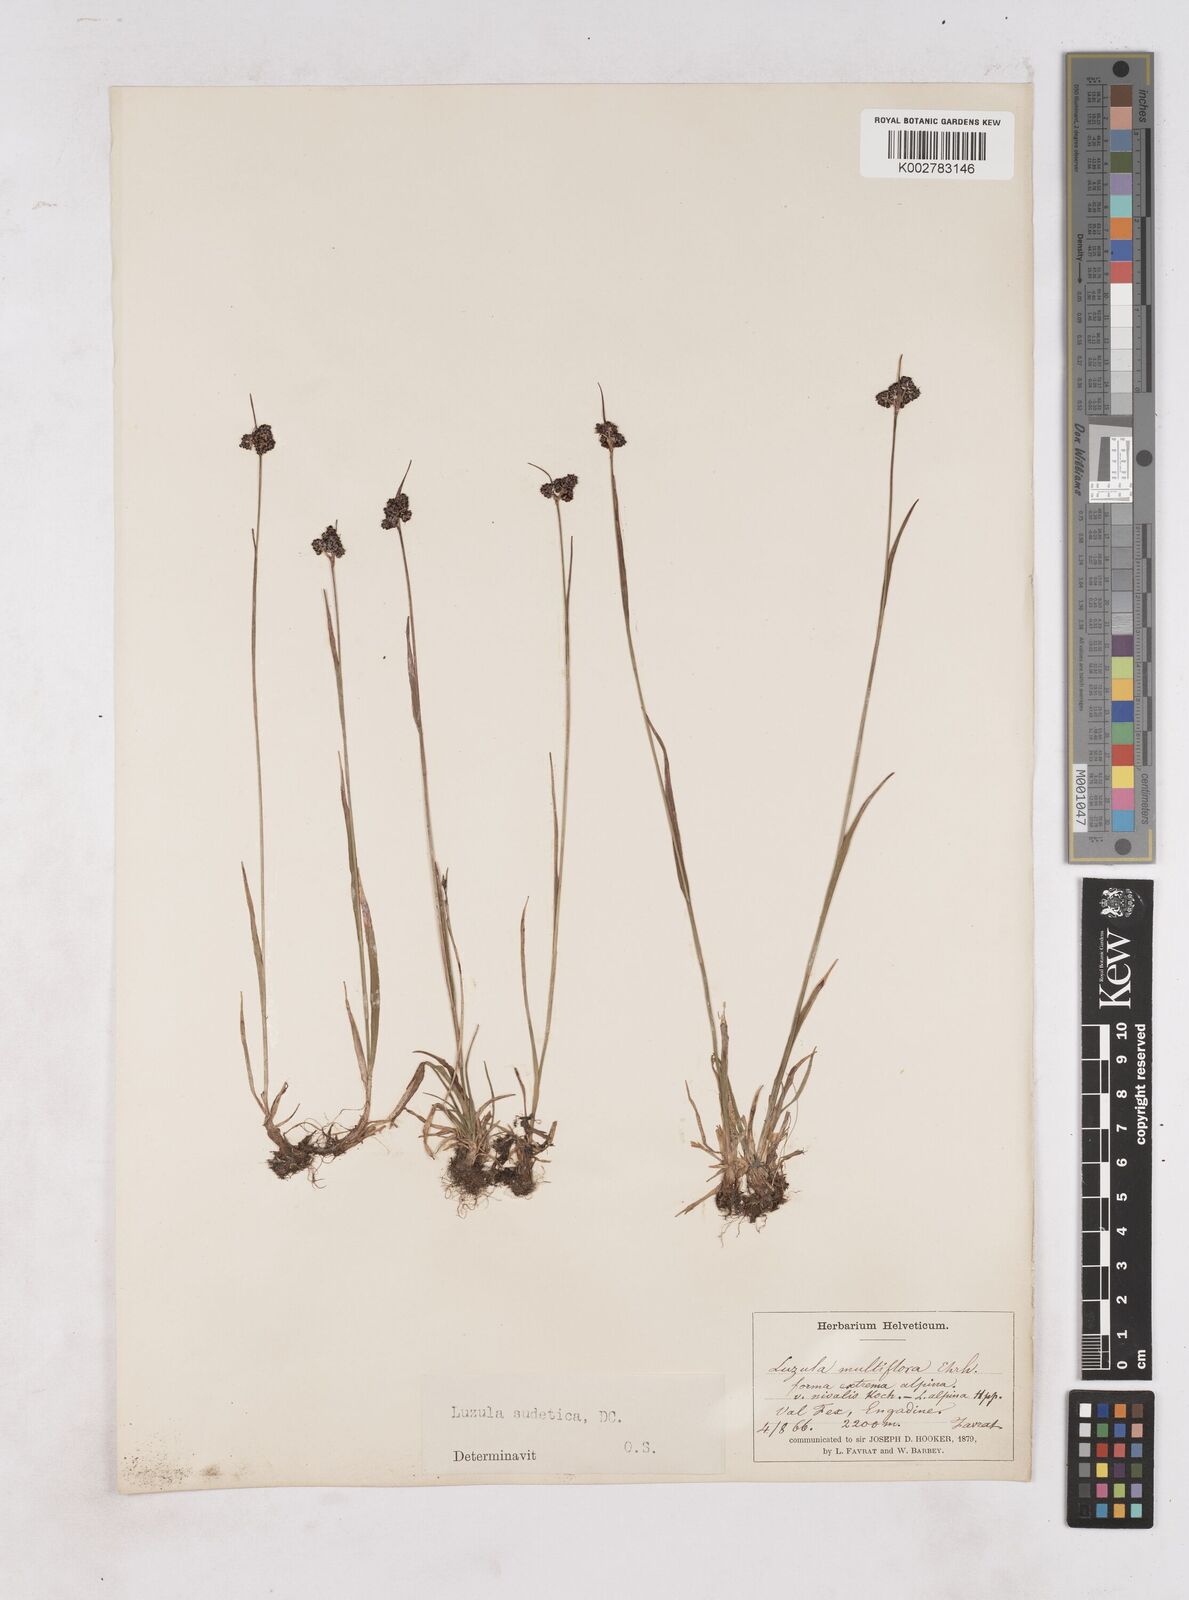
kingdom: Plantae
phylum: Tracheophyta
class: Liliopsida
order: Poales
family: Juncaceae
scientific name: Juncaceae
